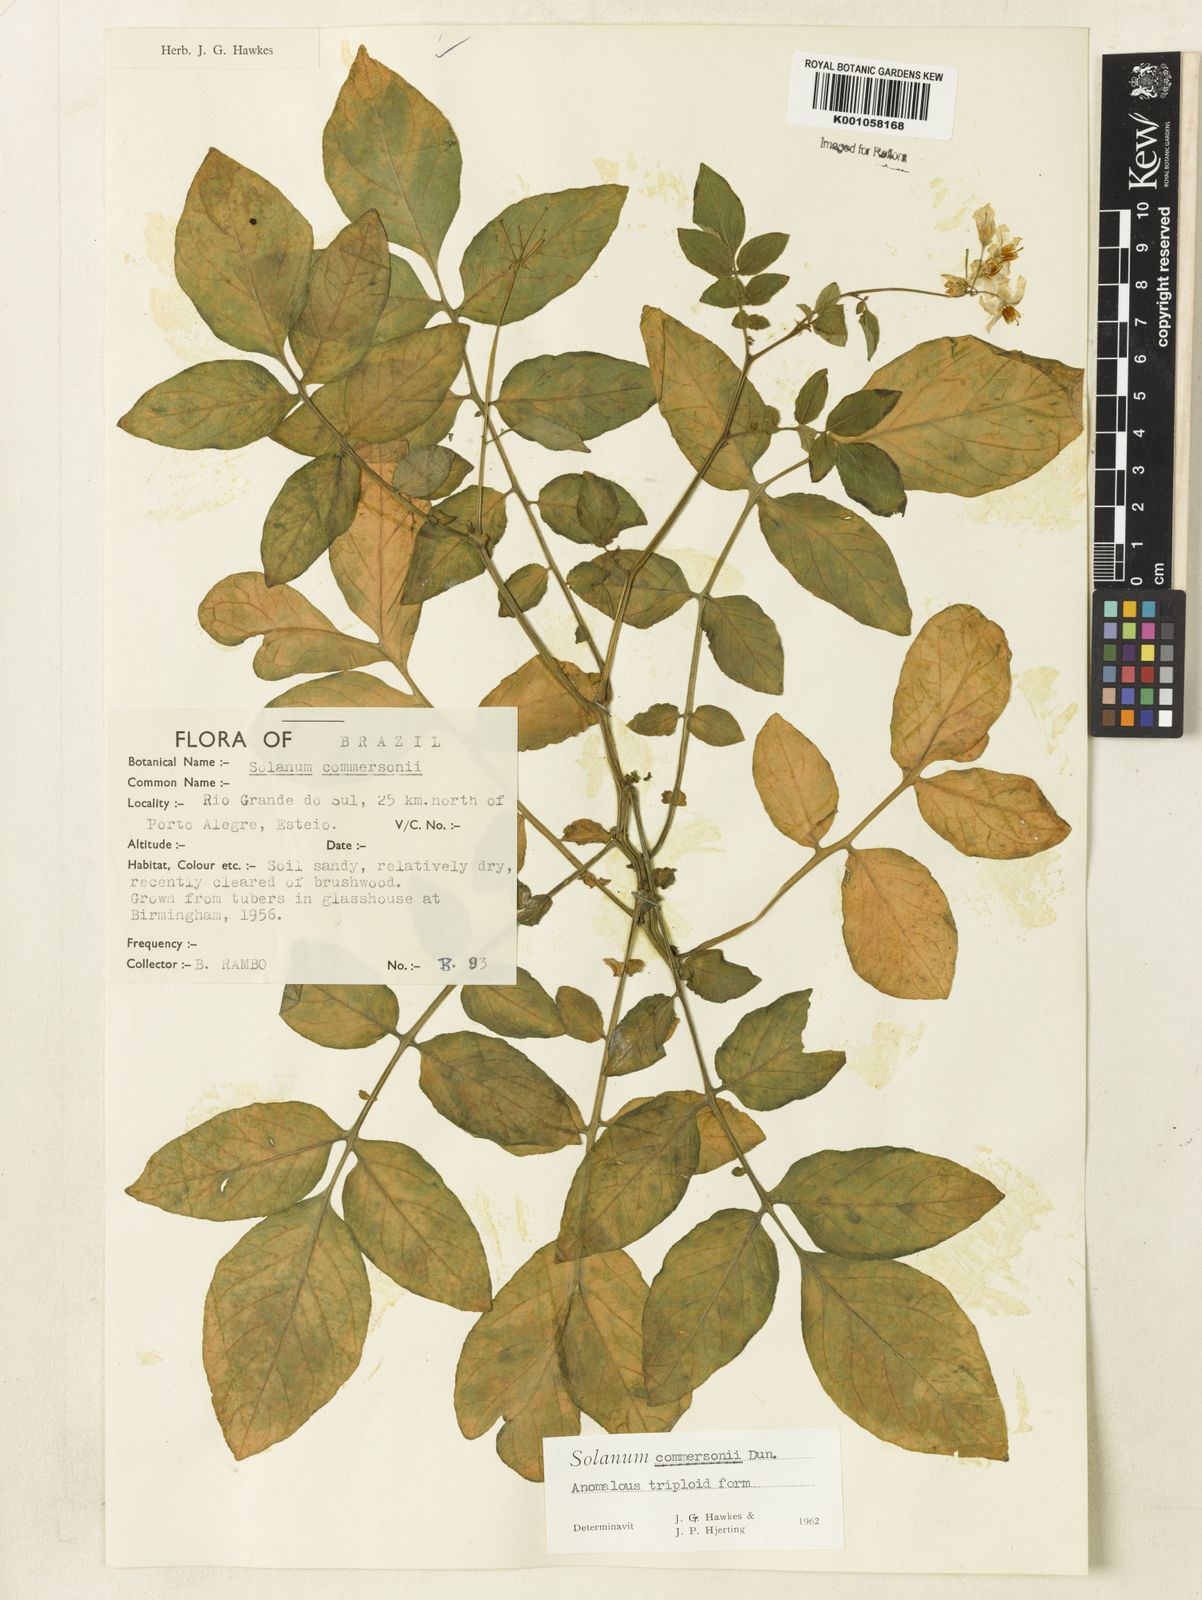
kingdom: Plantae
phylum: Tracheophyta
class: Magnoliopsida
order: Solanales
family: Solanaceae
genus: Solanum
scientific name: Solanum
